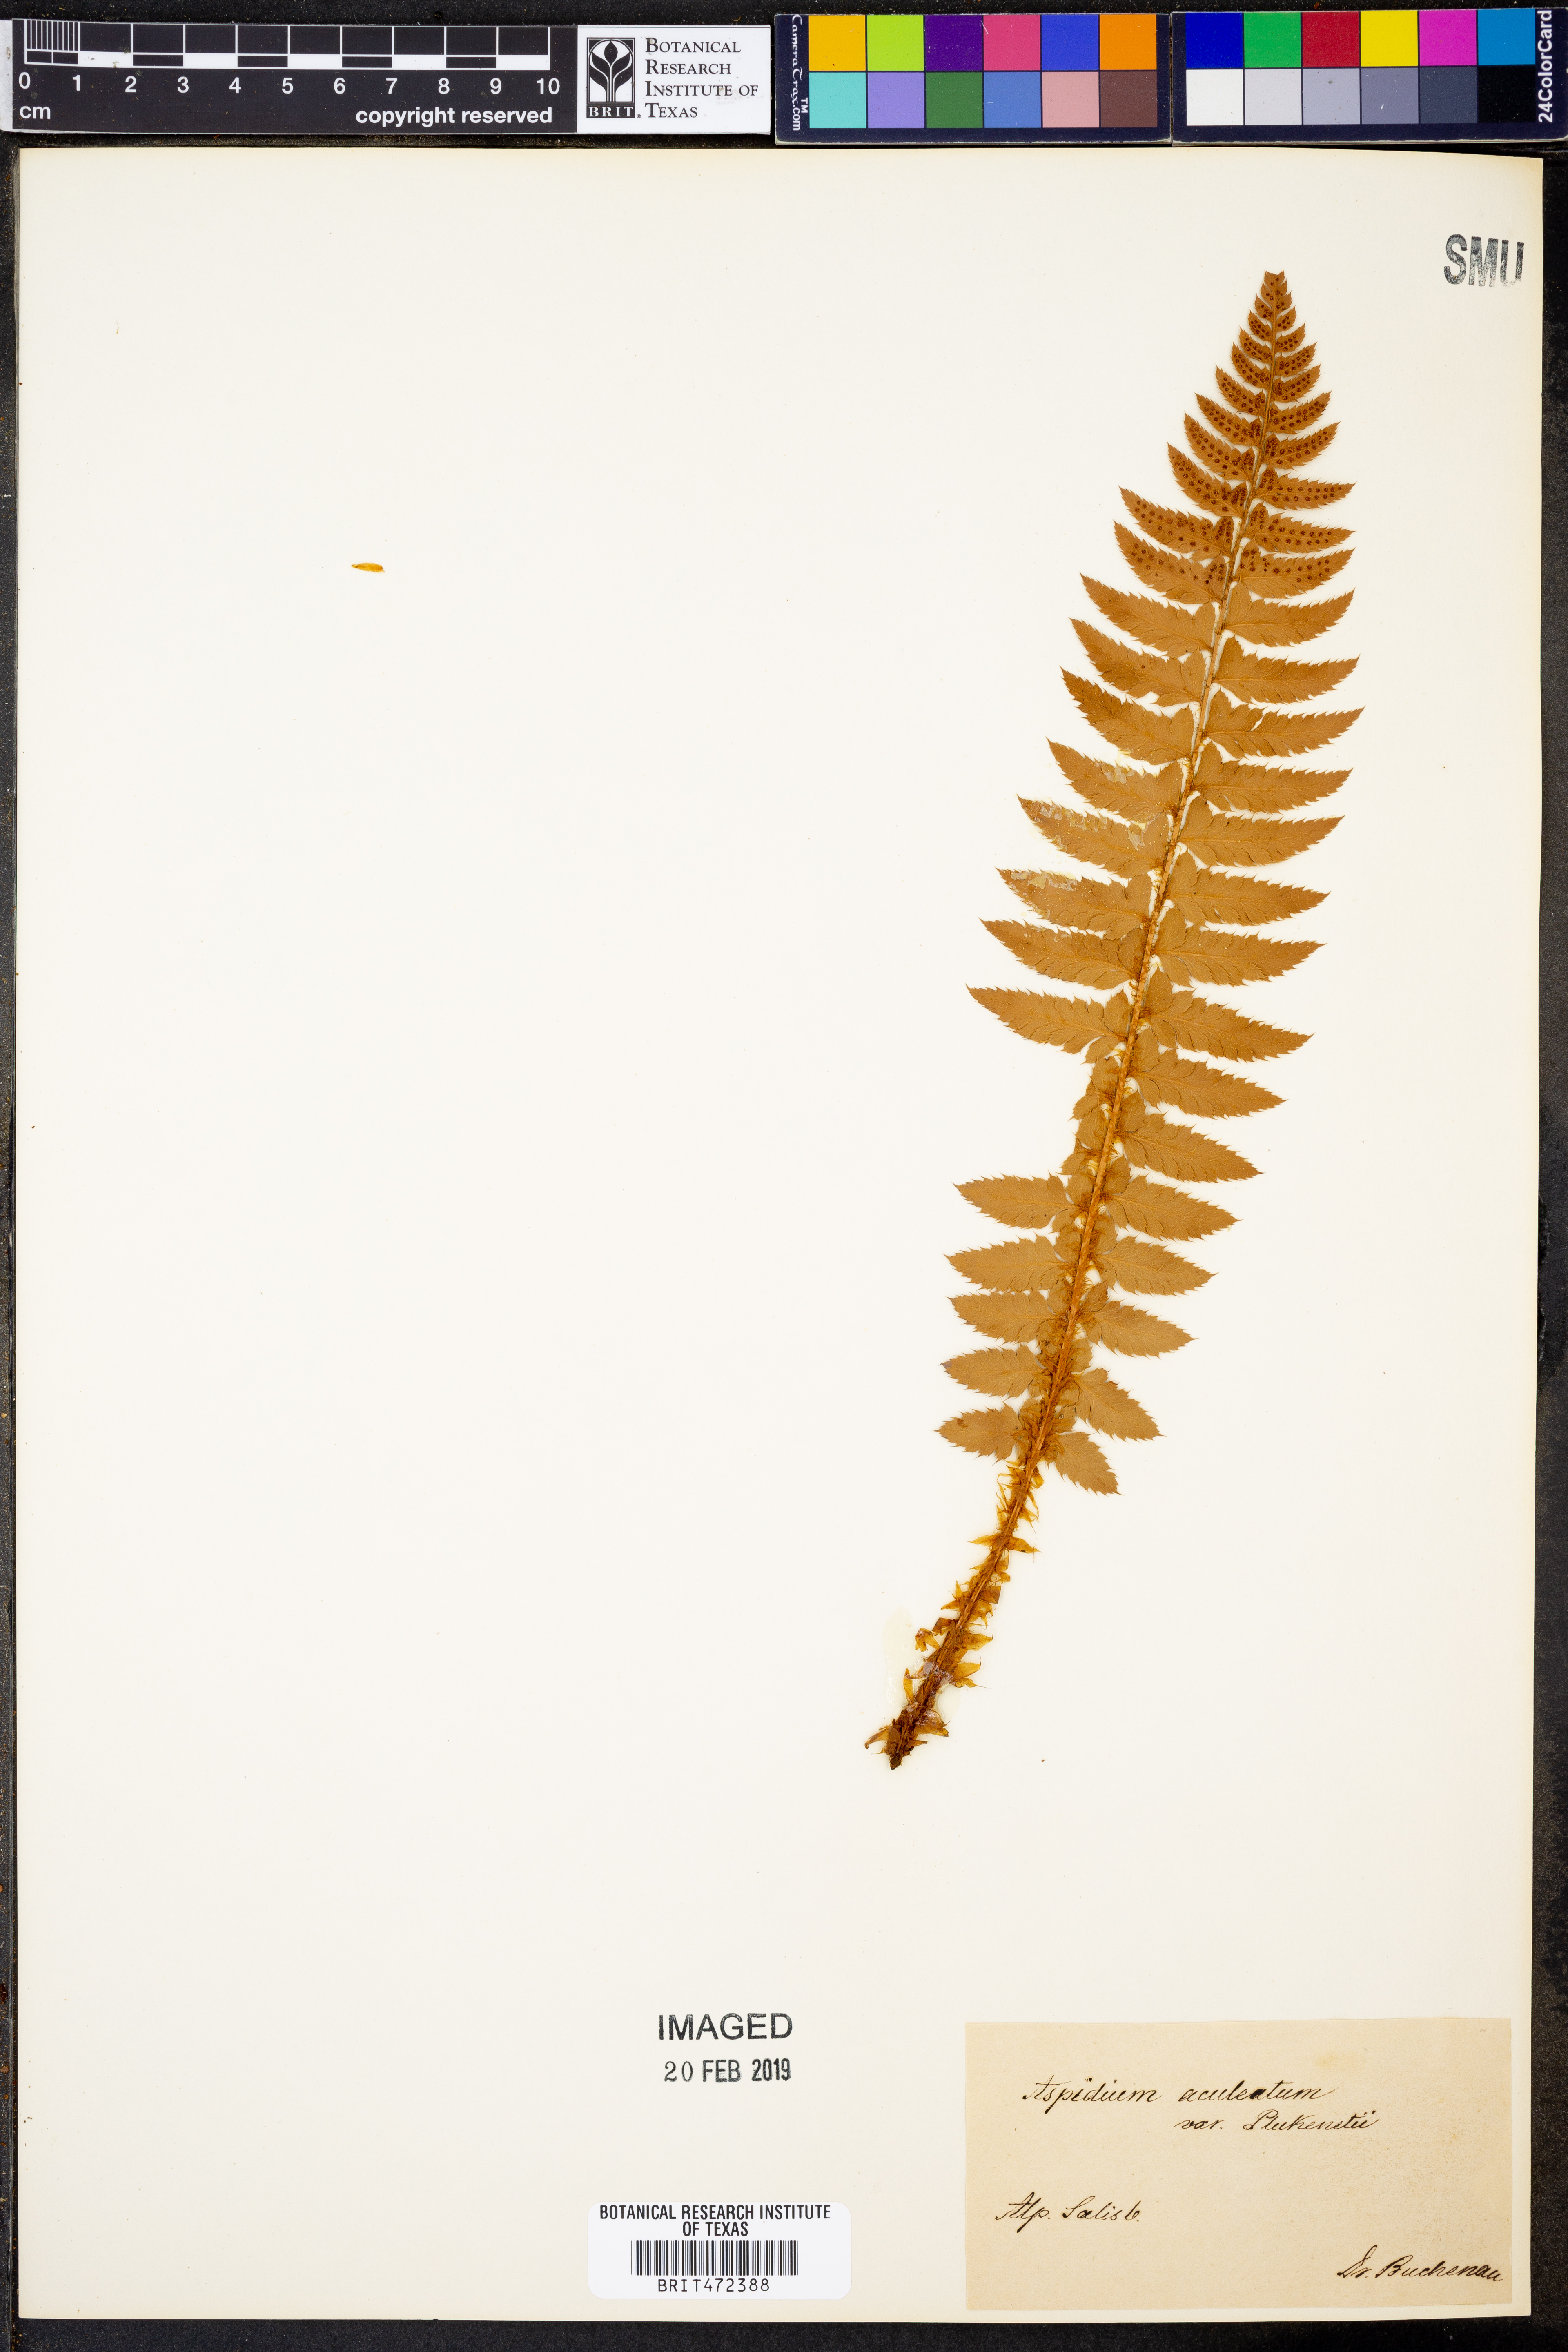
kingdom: Plantae
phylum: Tracheophyta
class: Polypodiopsida
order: Polypodiales
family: Dryopteridaceae
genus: Polystichum
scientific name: Polystichum aculeatum
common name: Hard shield-fern
